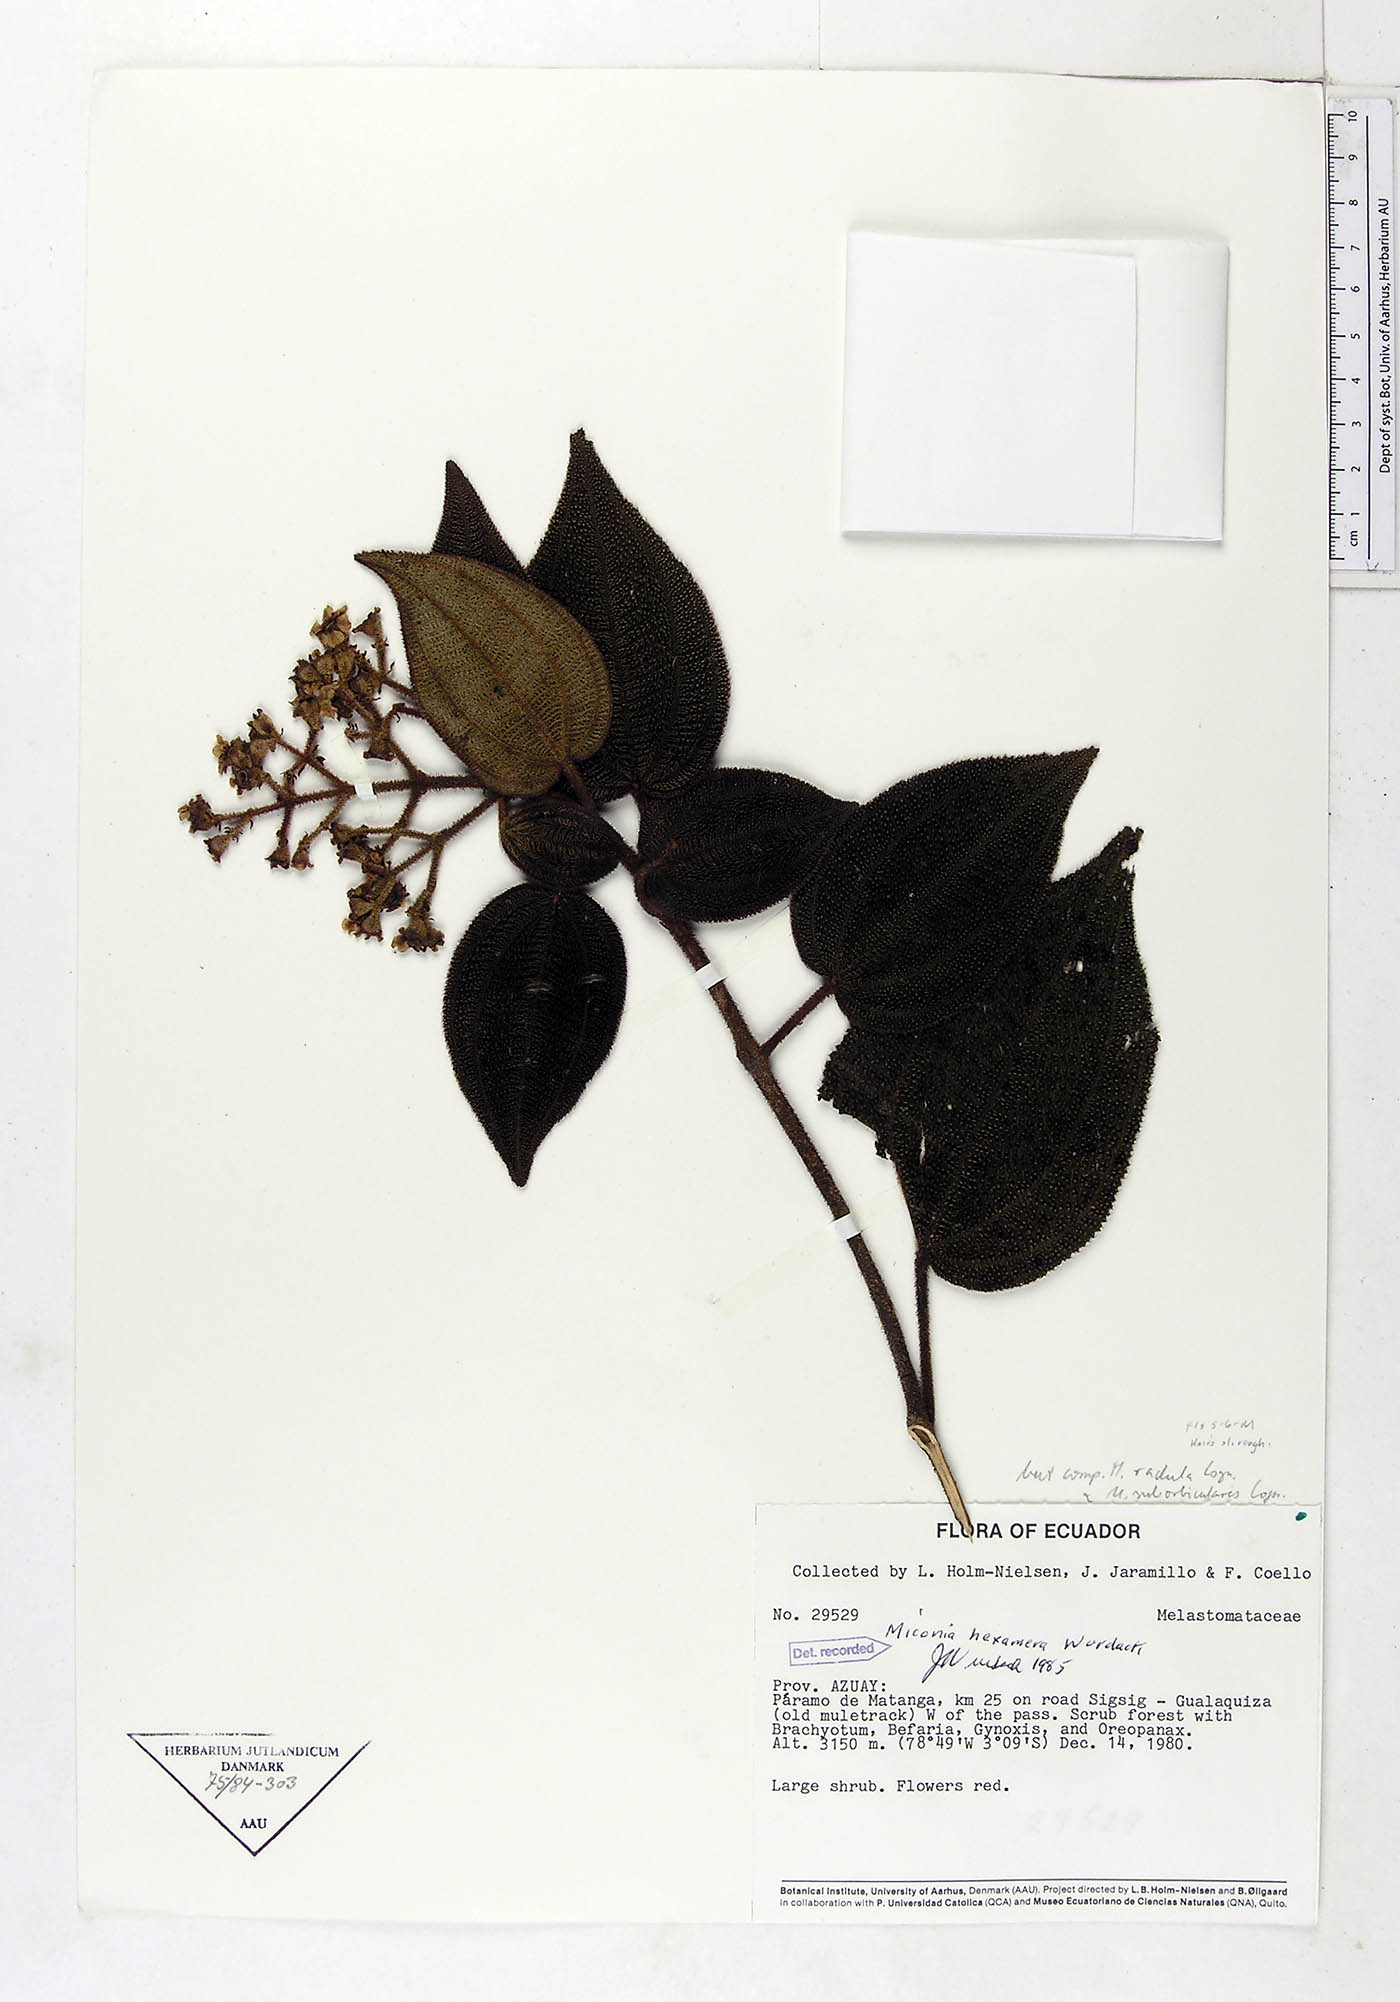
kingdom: Plantae
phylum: Tracheophyta
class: Magnoliopsida
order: Myrtales
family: Melastomataceae
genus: Miconia
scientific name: Miconia hexamera
